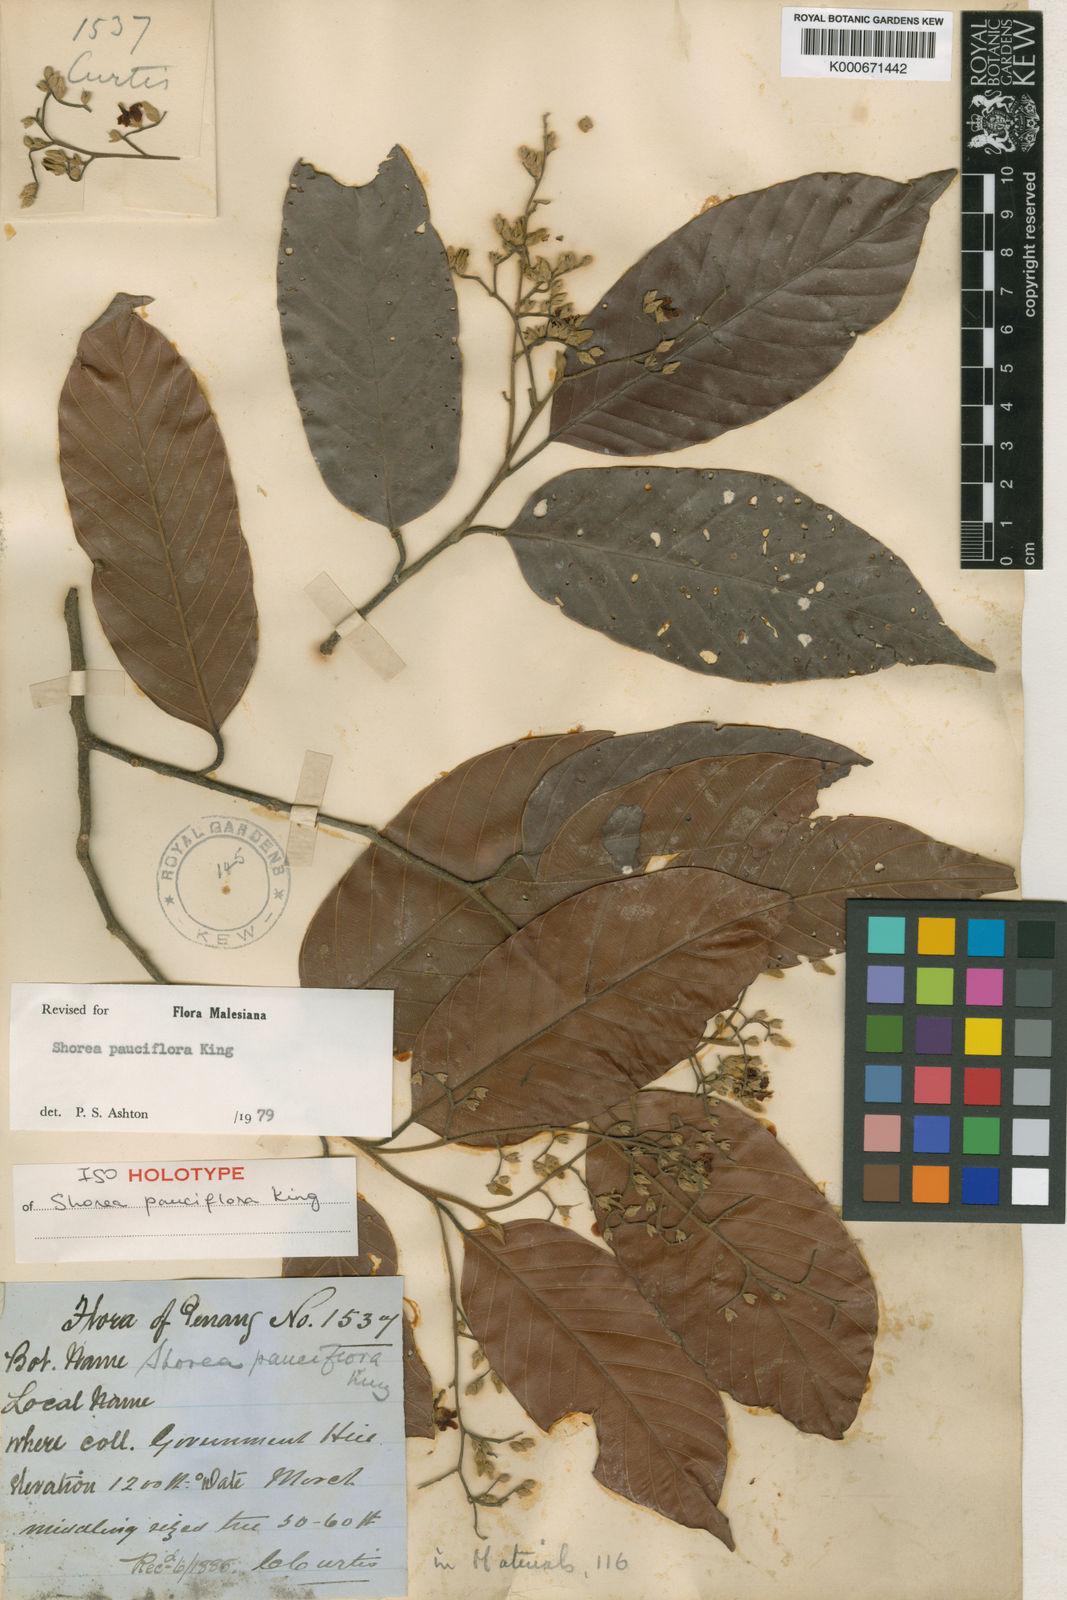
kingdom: Plantae
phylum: Tracheophyta
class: Magnoliopsida
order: Malvales
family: Dipterocarpaceae
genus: Shorea
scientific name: Shorea pauciflora
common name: Dark red meranti
